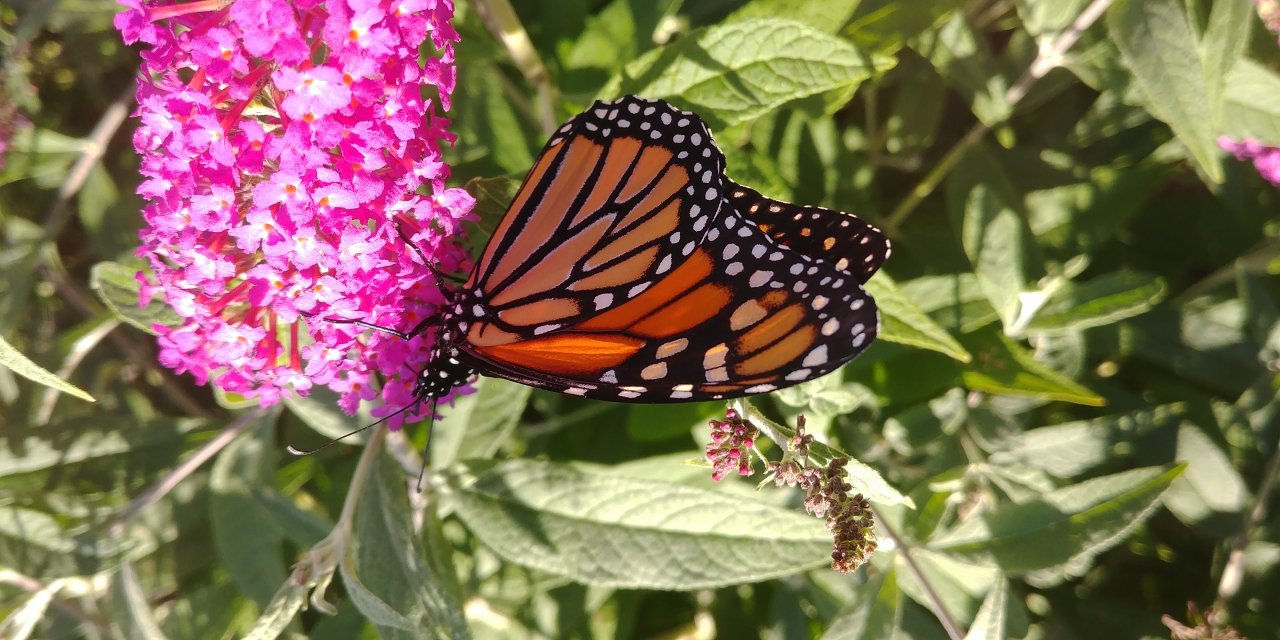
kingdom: Animalia
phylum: Arthropoda
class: Insecta
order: Lepidoptera
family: Nymphalidae
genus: Danaus
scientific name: Danaus plexippus
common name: Monarch
